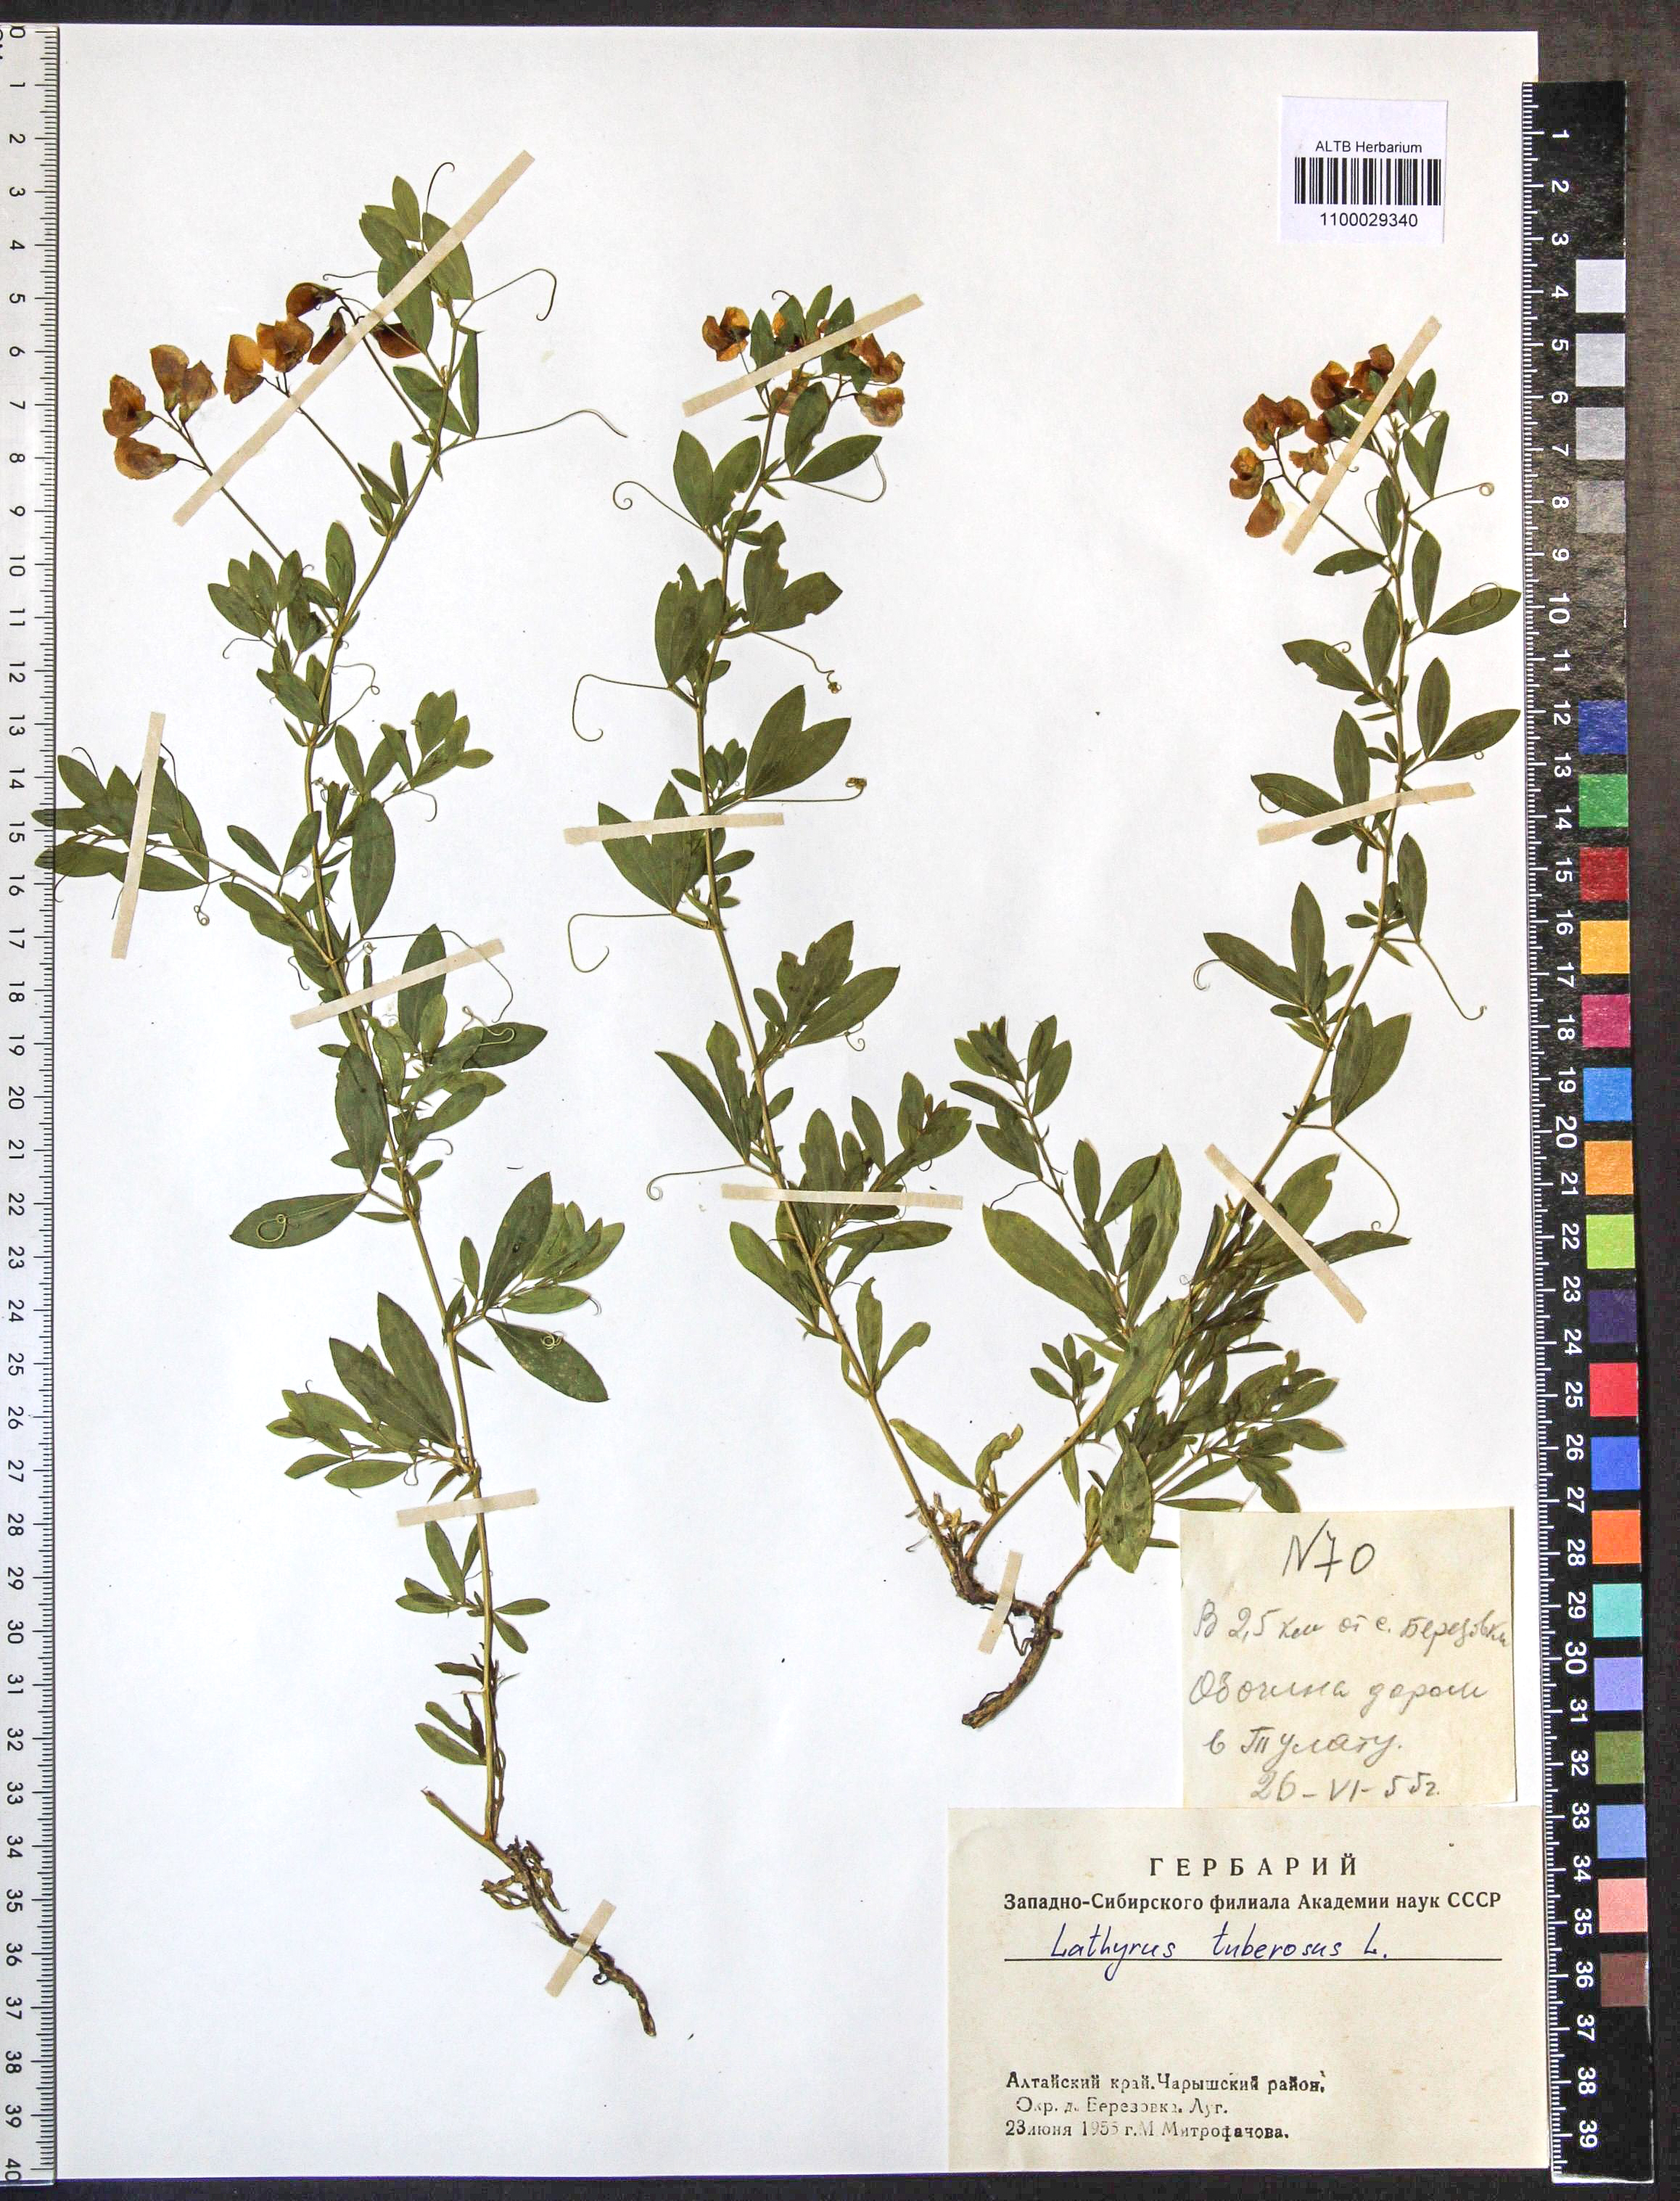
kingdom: Plantae
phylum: Tracheophyta
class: Magnoliopsida
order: Fabales
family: Fabaceae
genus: Lathyrus
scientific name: Lathyrus tuberosus
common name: Tuberous pea
